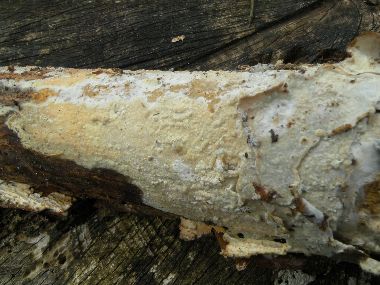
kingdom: Fungi
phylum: Basidiomycota
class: Agaricomycetes
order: Corticiales
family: Corticiaceae
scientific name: Corticiaceae
